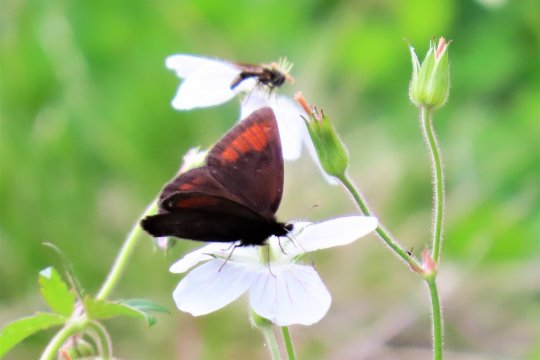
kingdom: Animalia
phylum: Arthropoda
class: Insecta
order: Lepidoptera
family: Nymphalidae
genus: Erebia
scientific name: Erebia pawloskii
